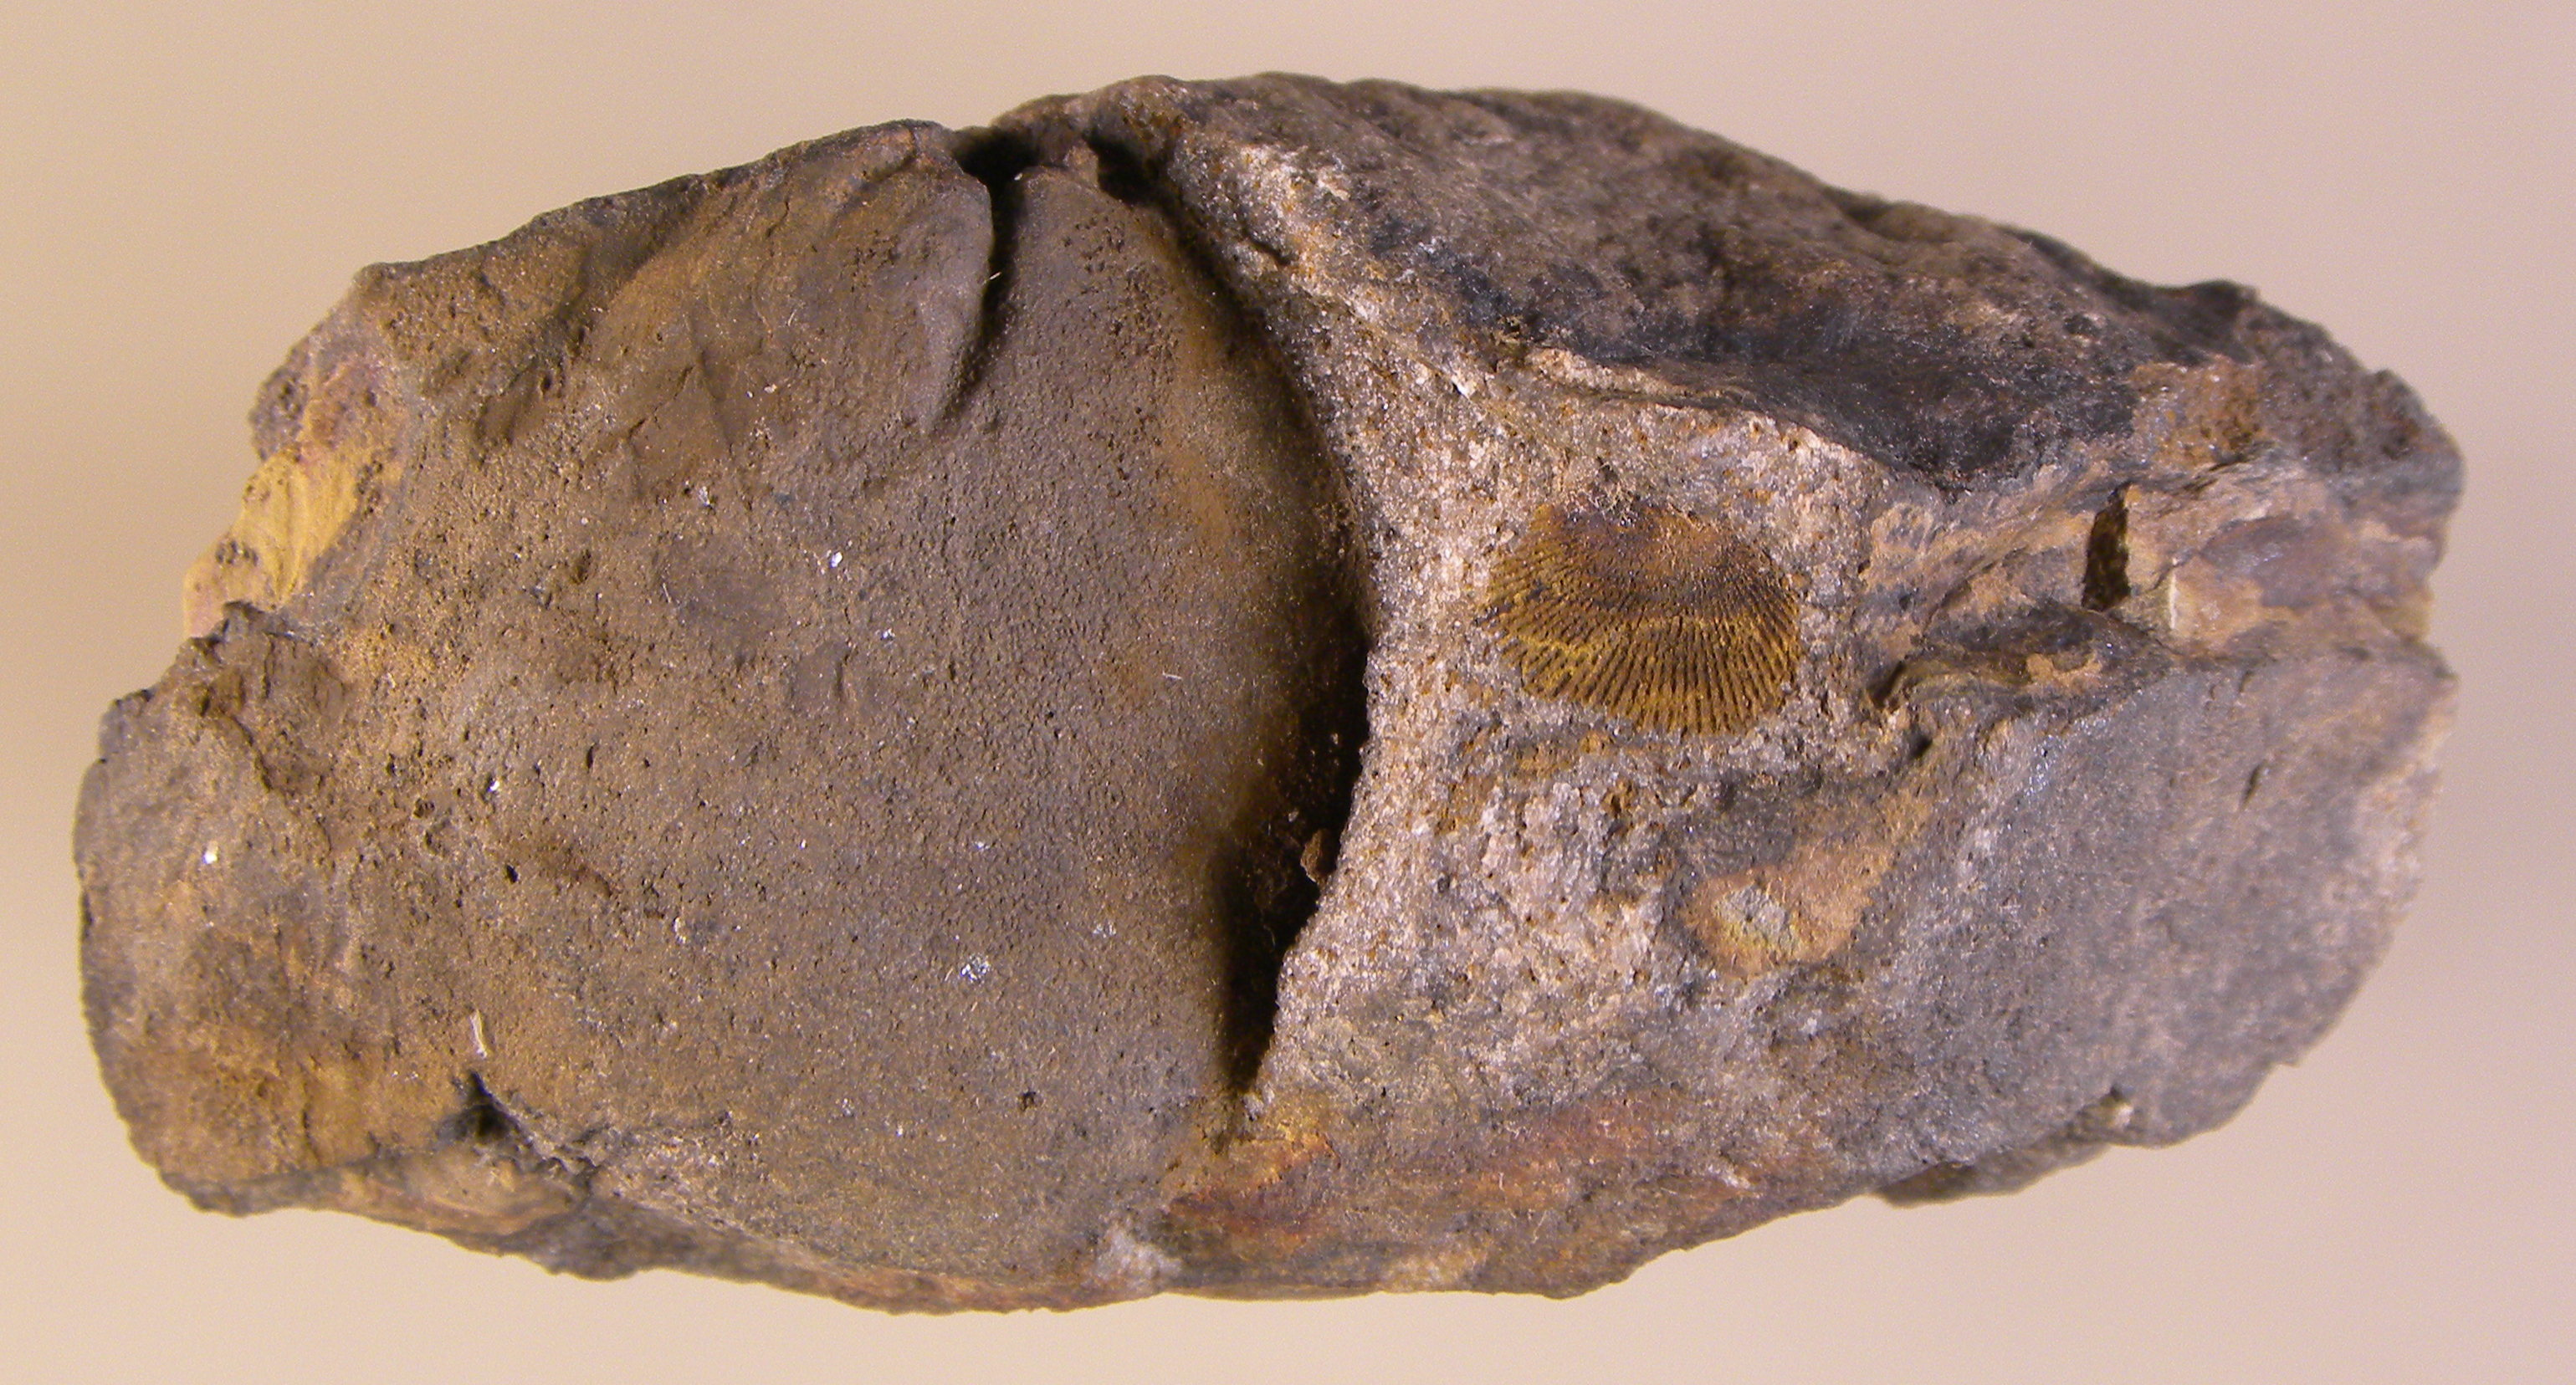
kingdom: Animalia
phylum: Brachiopoda
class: Rhynchonellata
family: Schizophoriidae
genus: Schizophoria
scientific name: Schizophoria
